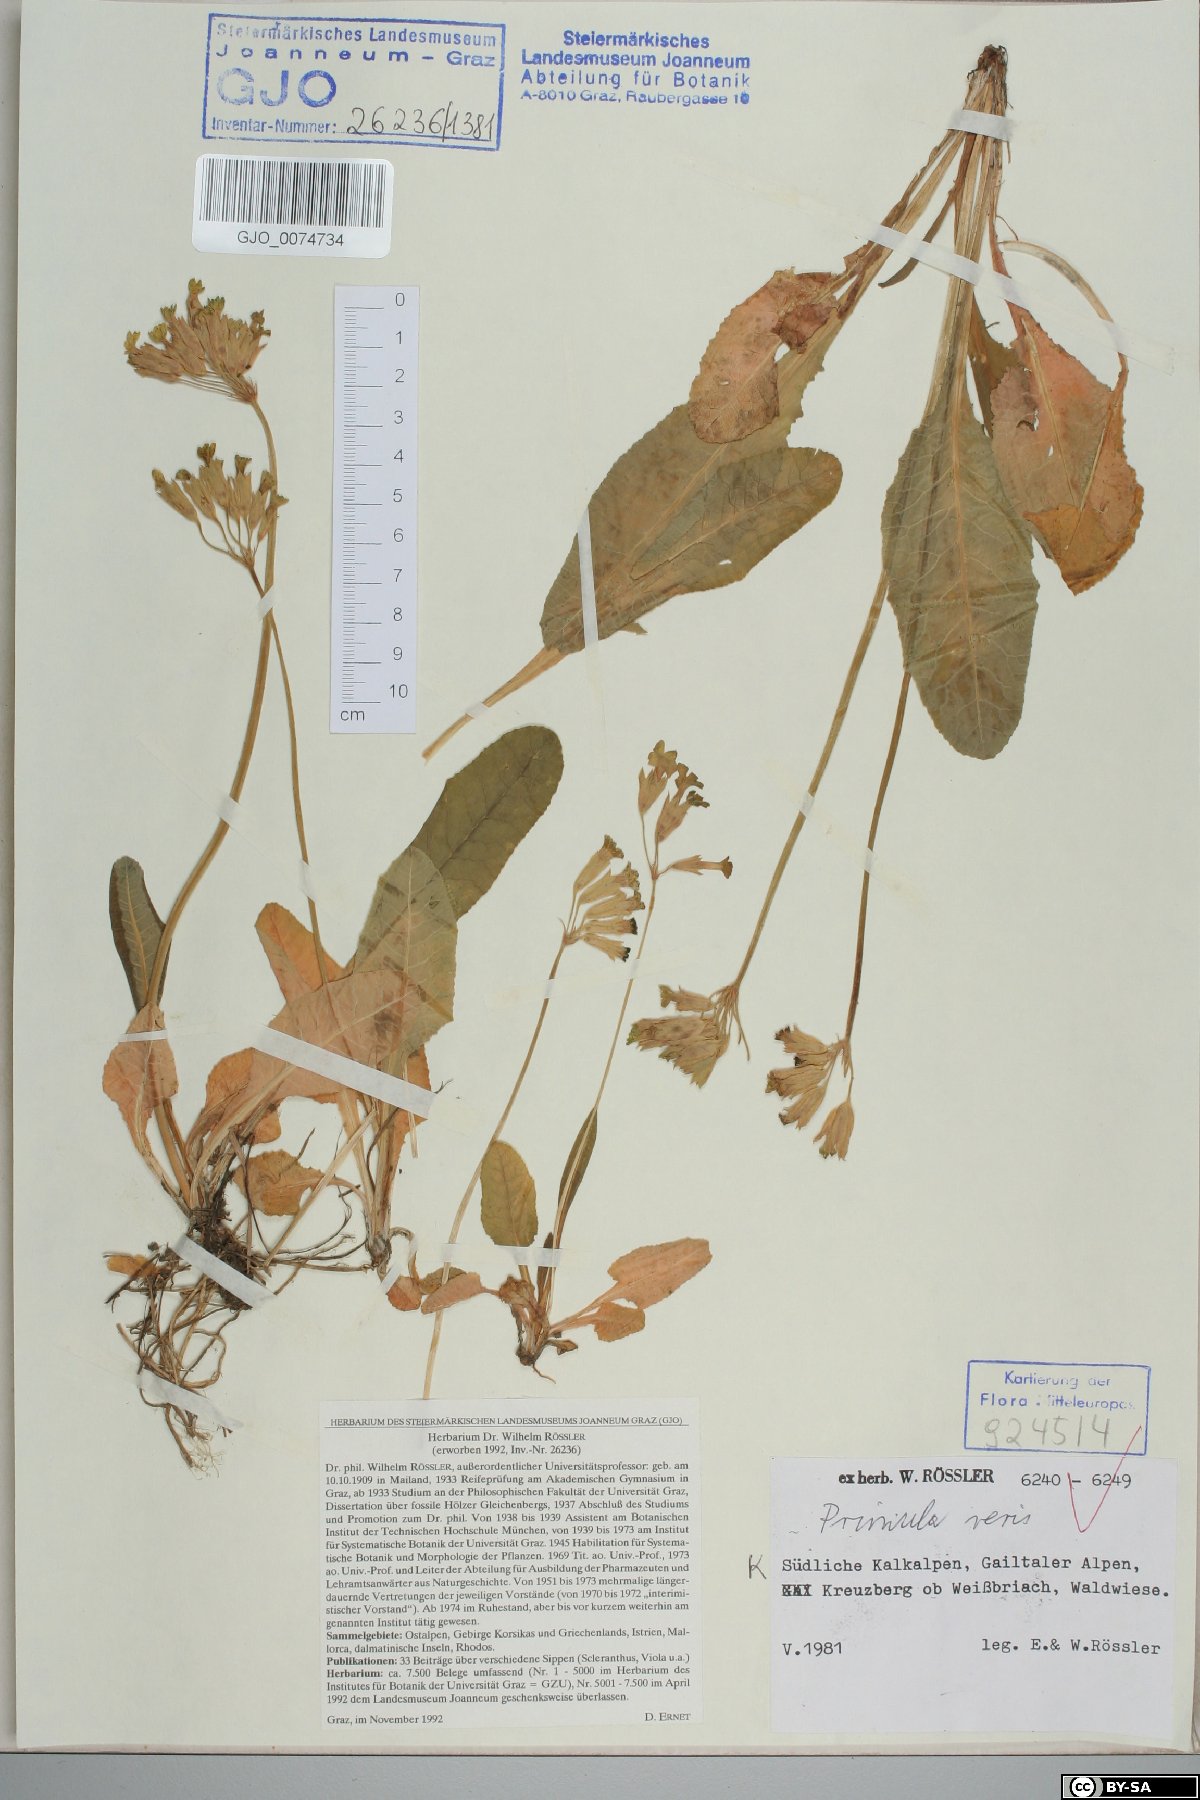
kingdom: Plantae
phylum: Tracheophyta
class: Magnoliopsida
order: Ericales
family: Primulaceae
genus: Primula
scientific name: Primula veris
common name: Cowslip
